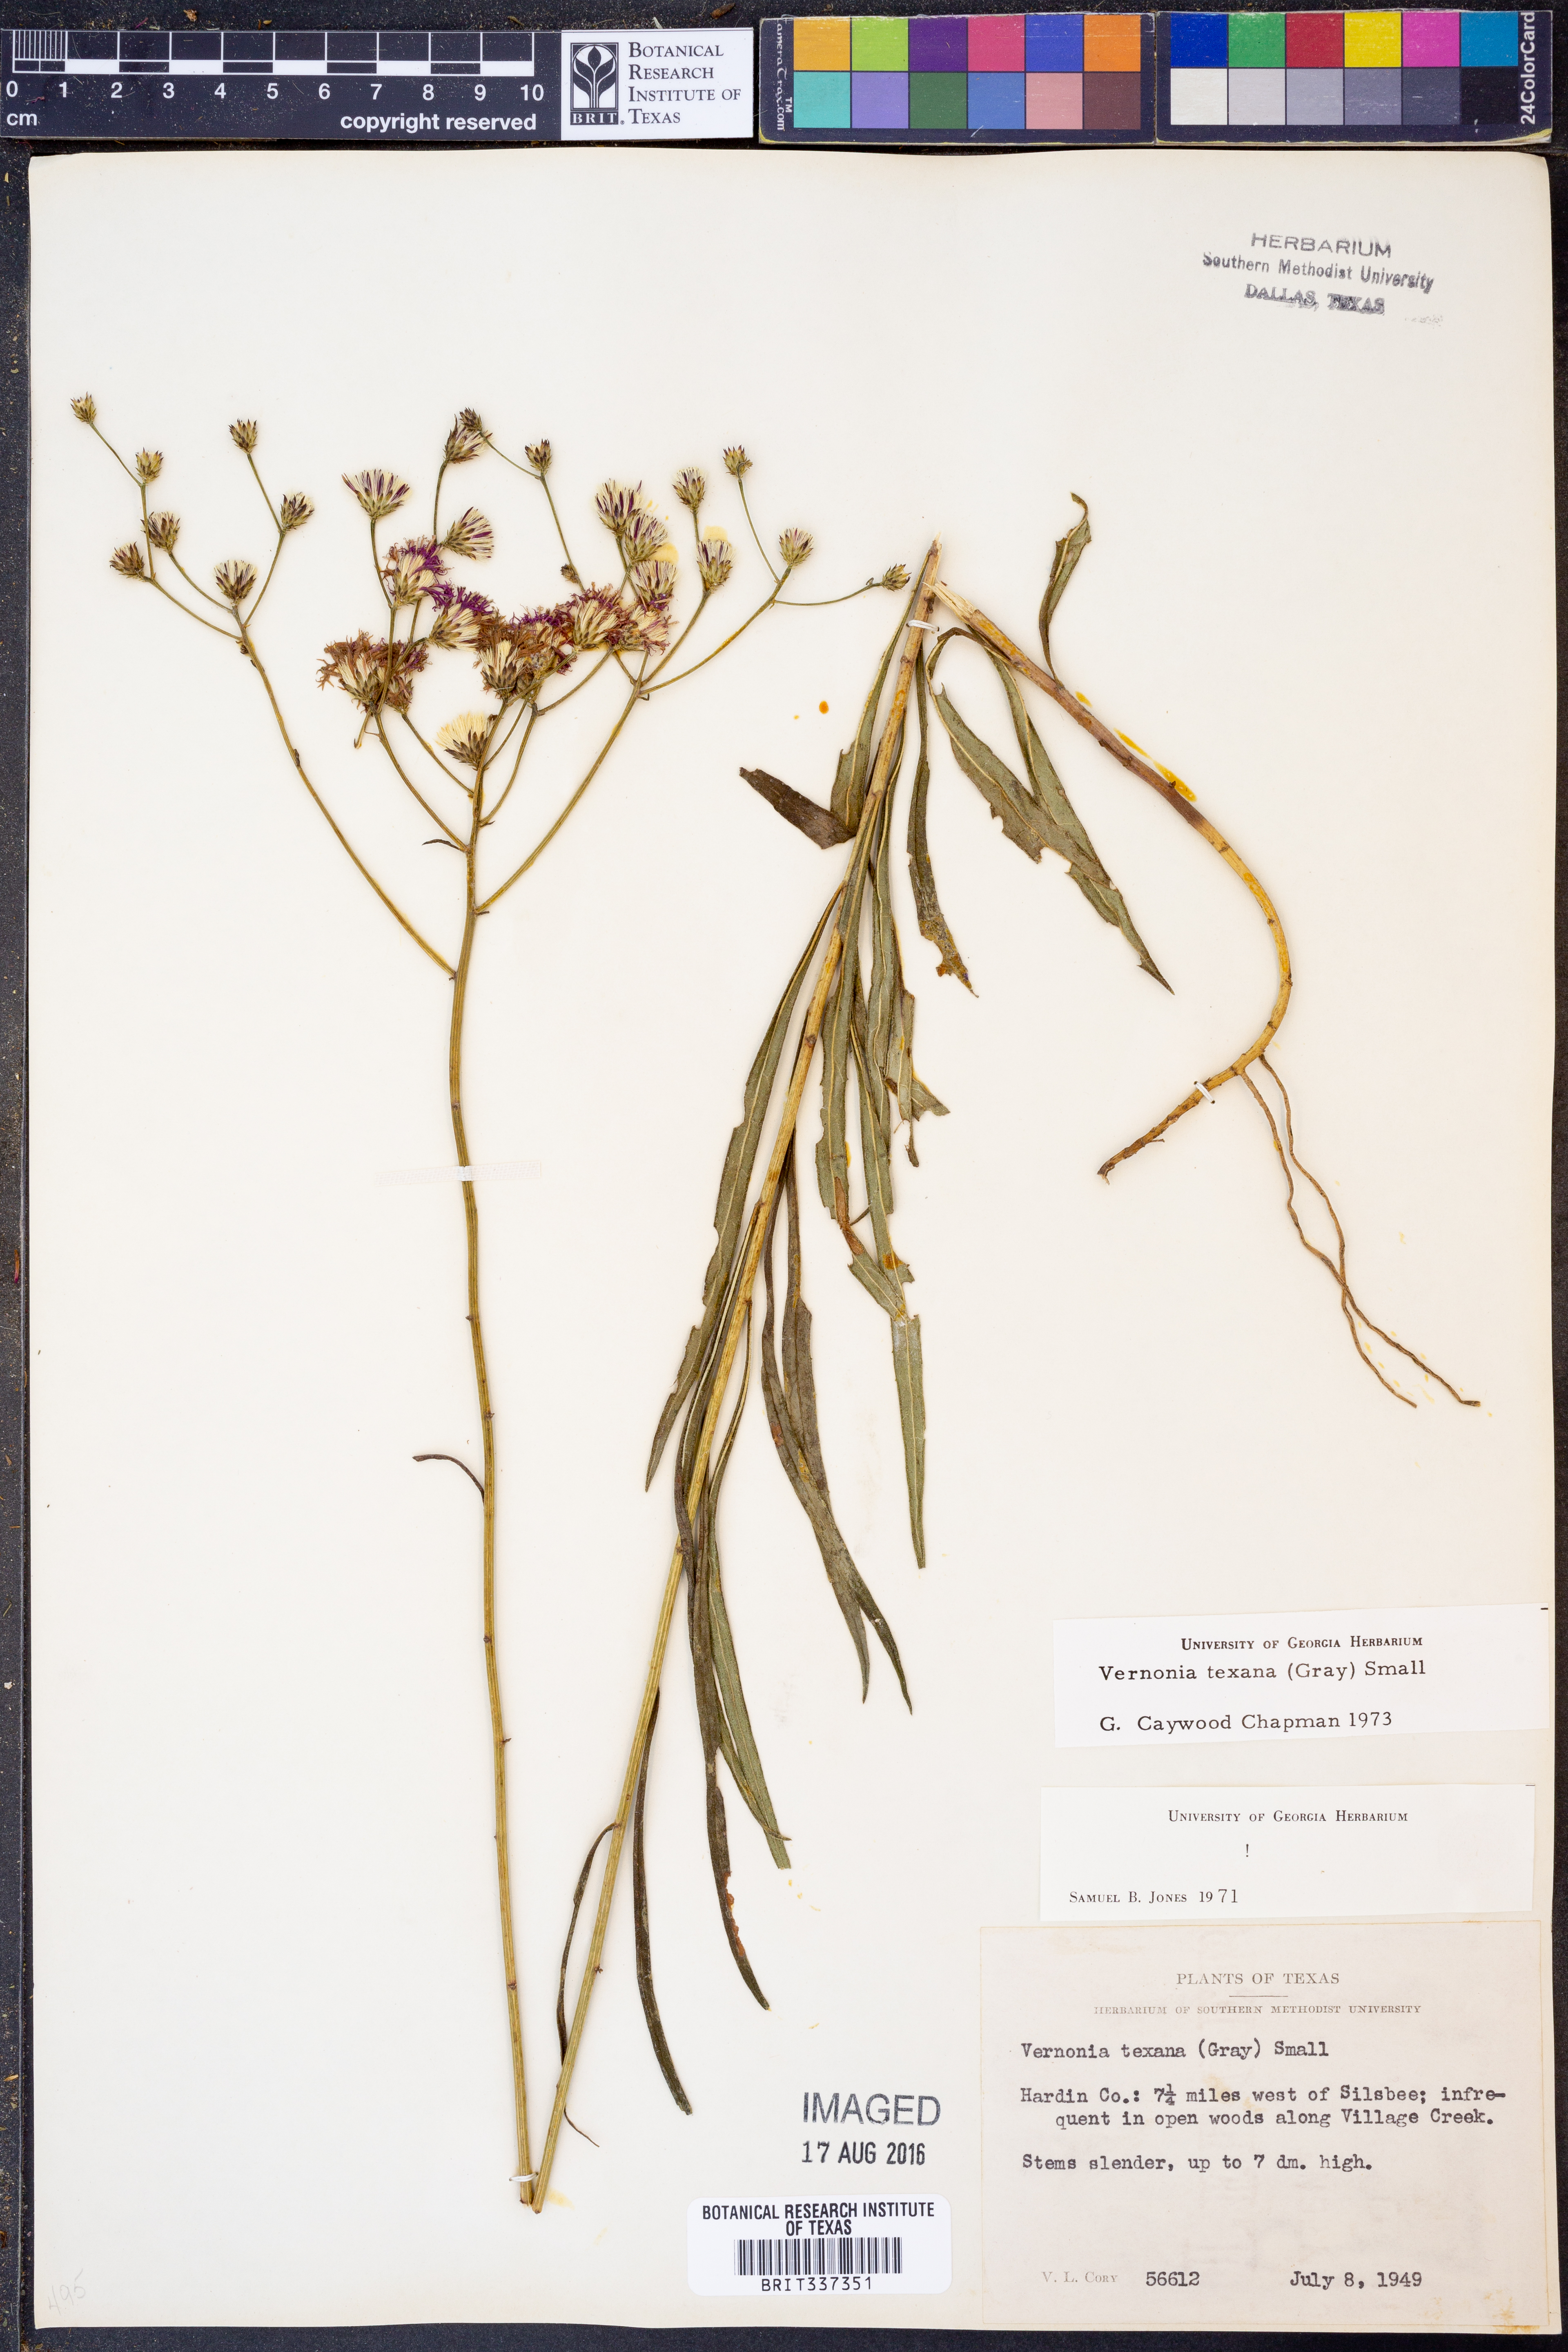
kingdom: Plantae
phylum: Tracheophyta
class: Magnoliopsida
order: Asterales
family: Asteraceae
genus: Vernonia
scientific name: Vernonia texana
